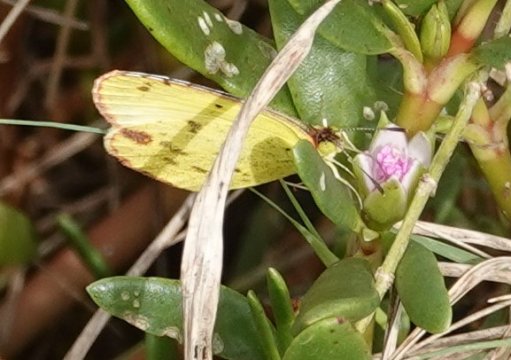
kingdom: Animalia
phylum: Arthropoda
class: Insecta
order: Lepidoptera
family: Pieridae
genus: Pyrisitia
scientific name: Pyrisitia lisa
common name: Little Yellow
